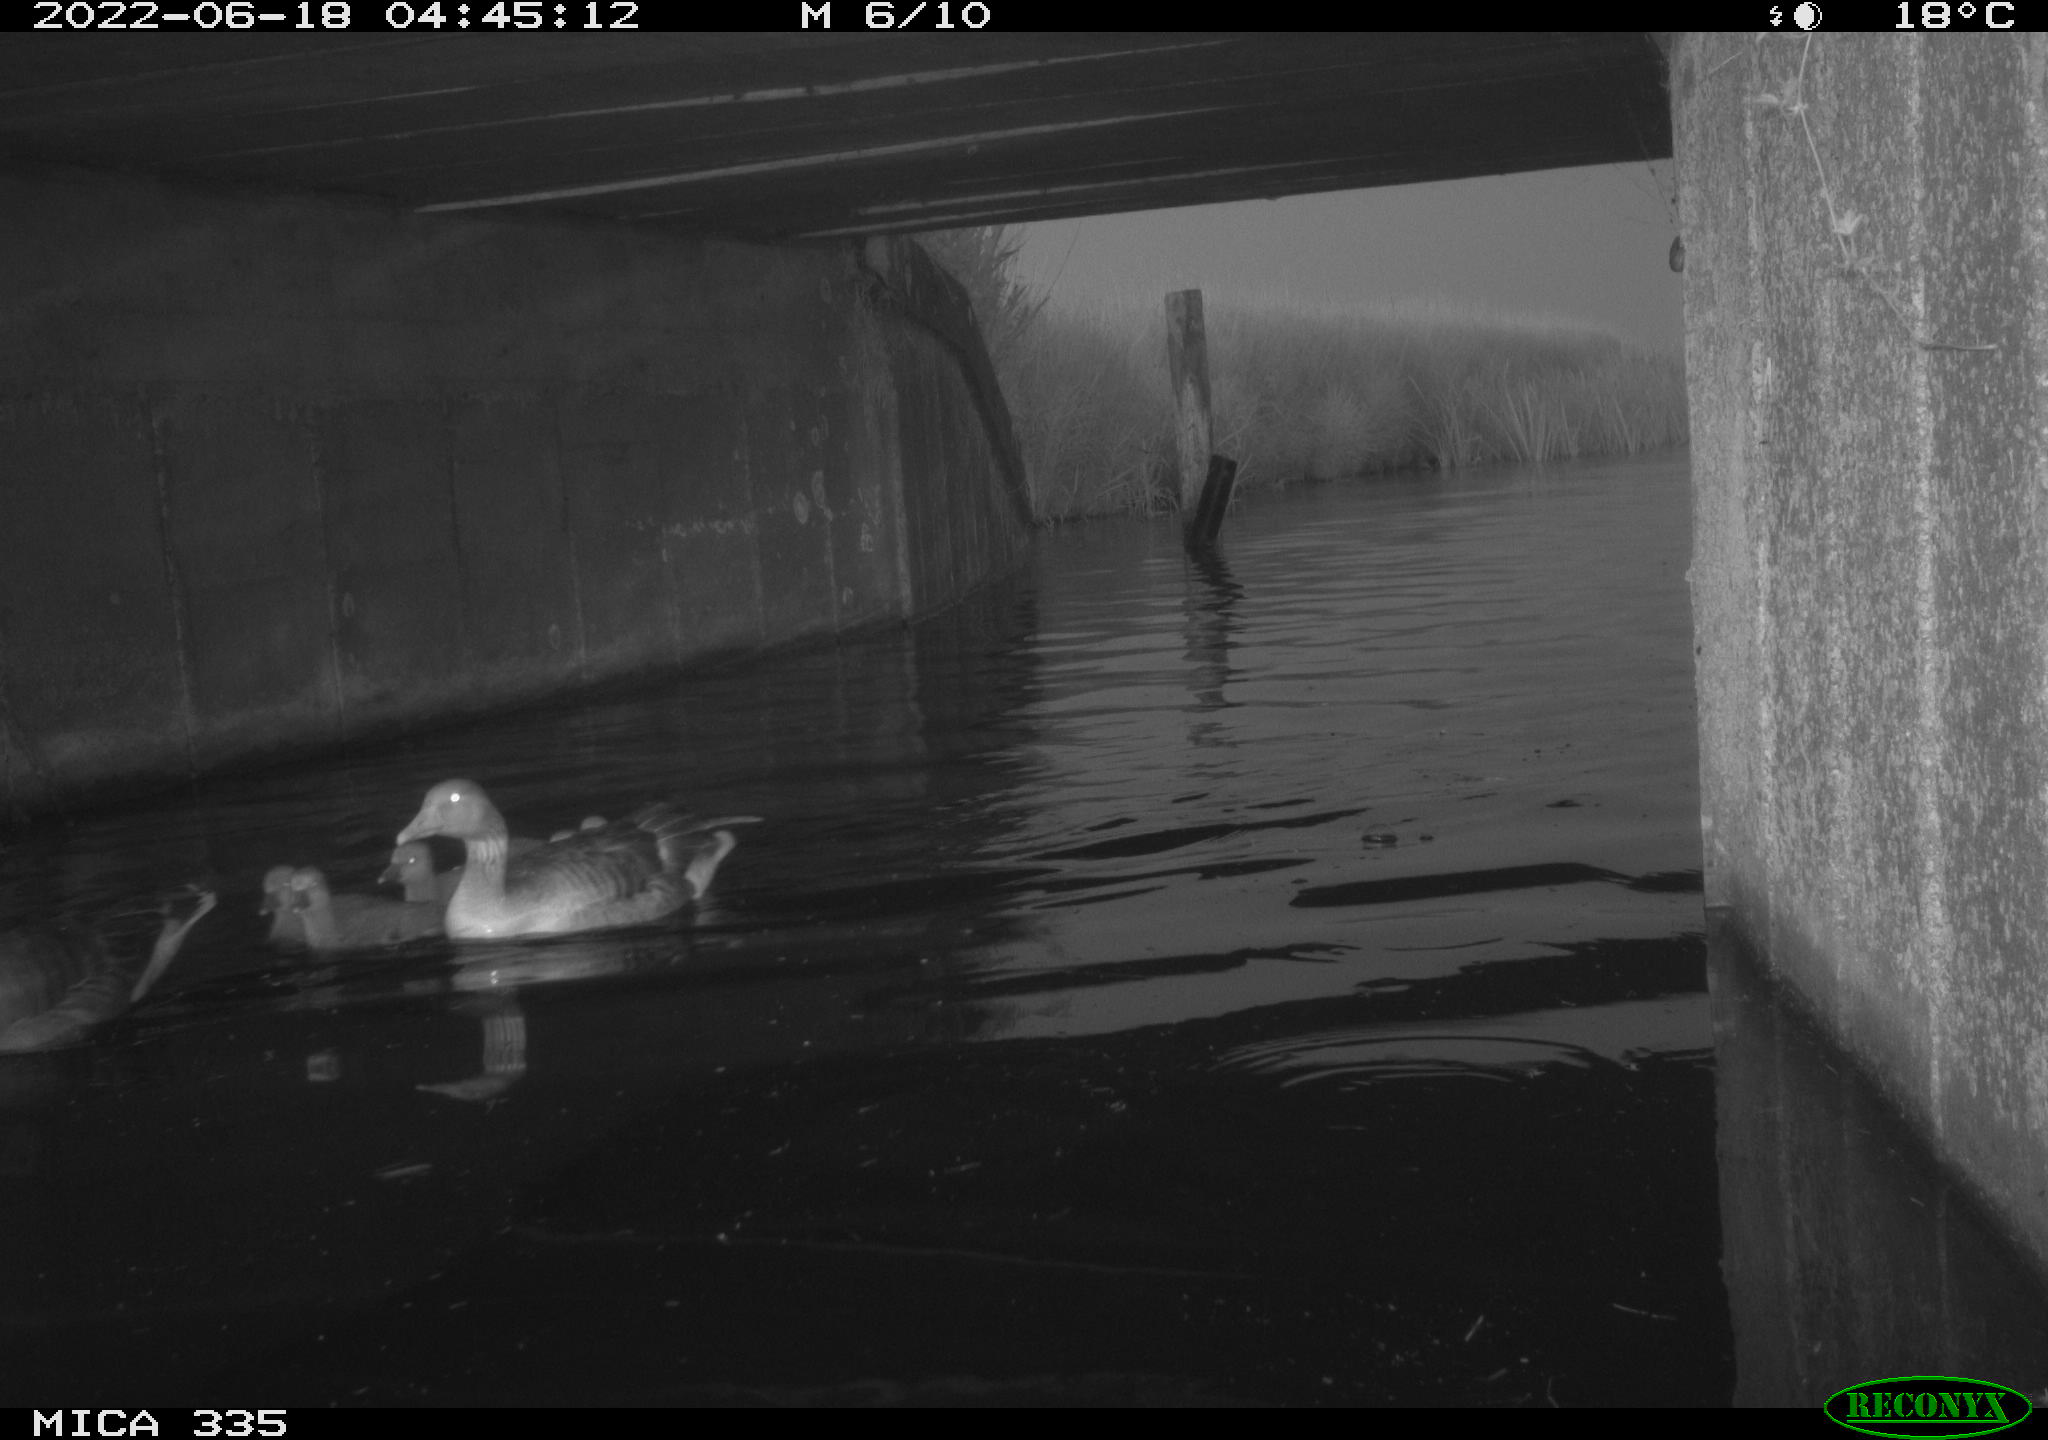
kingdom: Animalia
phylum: Chordata
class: Aves
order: Anseriformes
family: Anatidae
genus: Anser
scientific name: Anser anser
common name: Greylag goose
